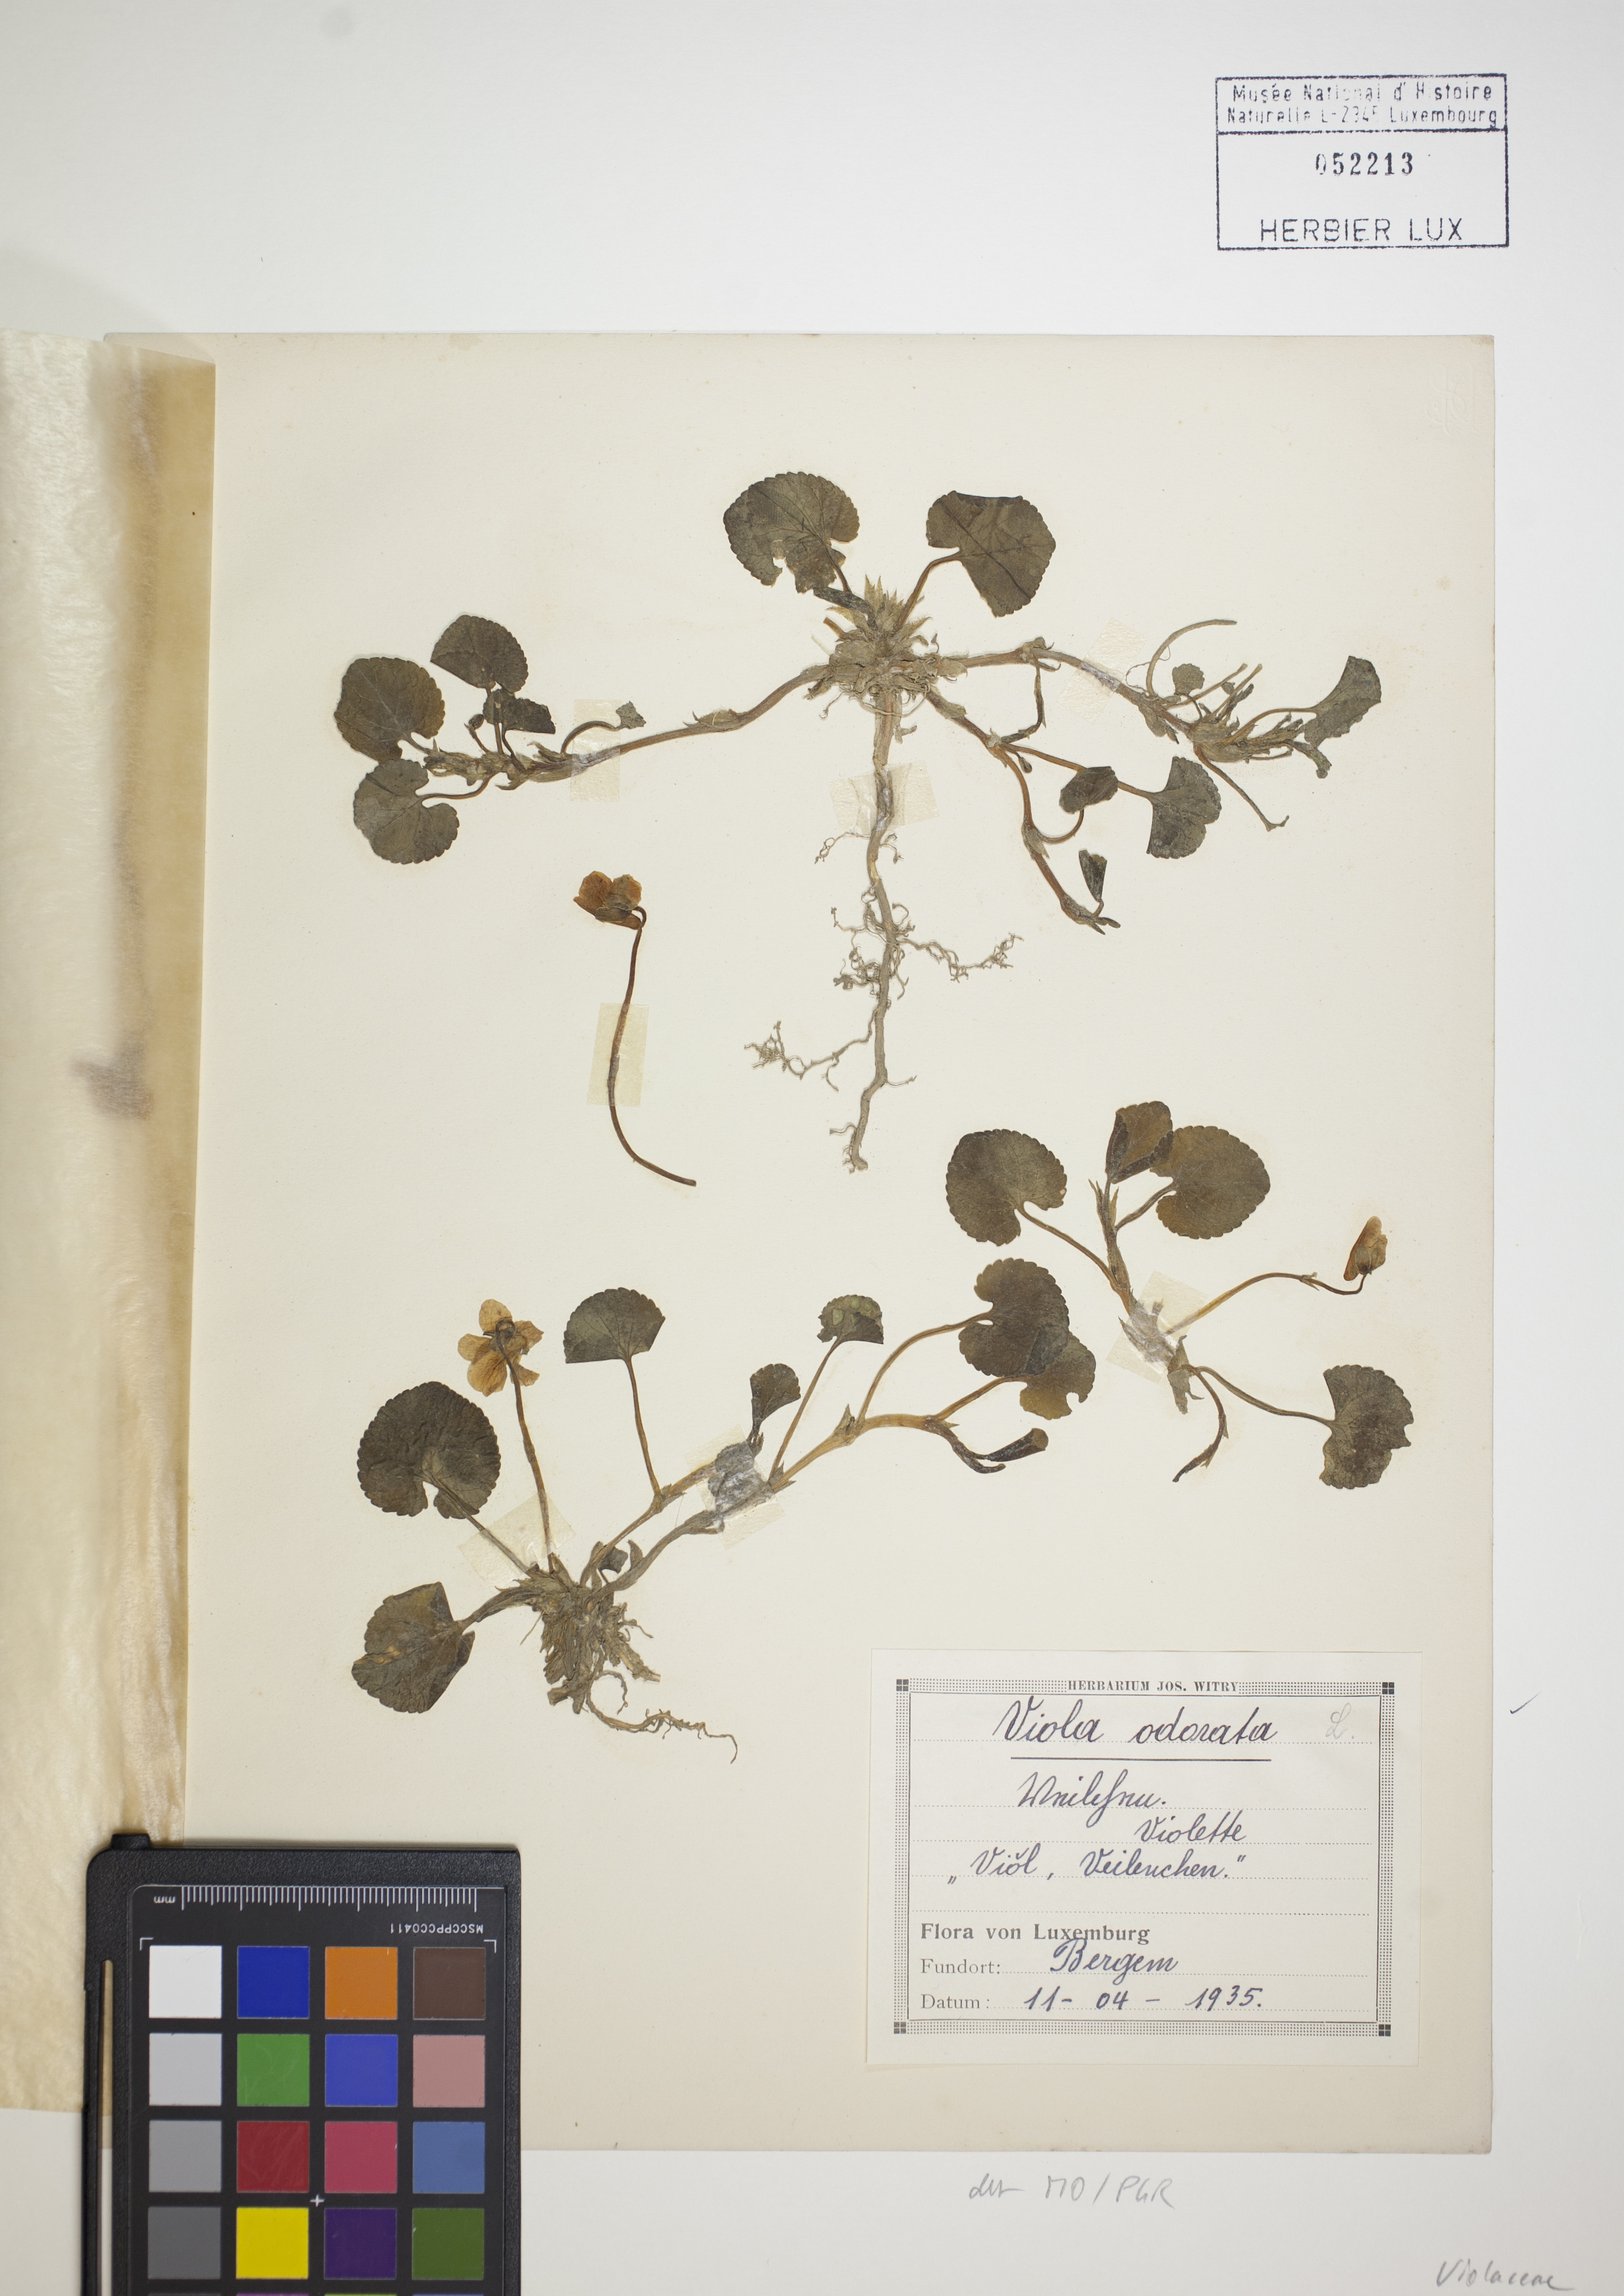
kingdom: Plantae
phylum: Tracheophyta
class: Magnoliopsida
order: Malpighiales
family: Violaceae
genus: Viola
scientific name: Viola odorata
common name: Sweet violet
